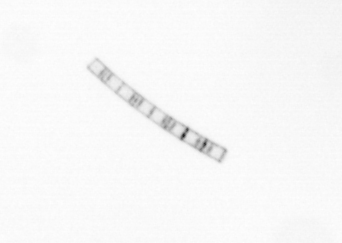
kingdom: Chromista
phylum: Ochrophyta
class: Bacillariophyceae
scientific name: Bacillariophyceae
